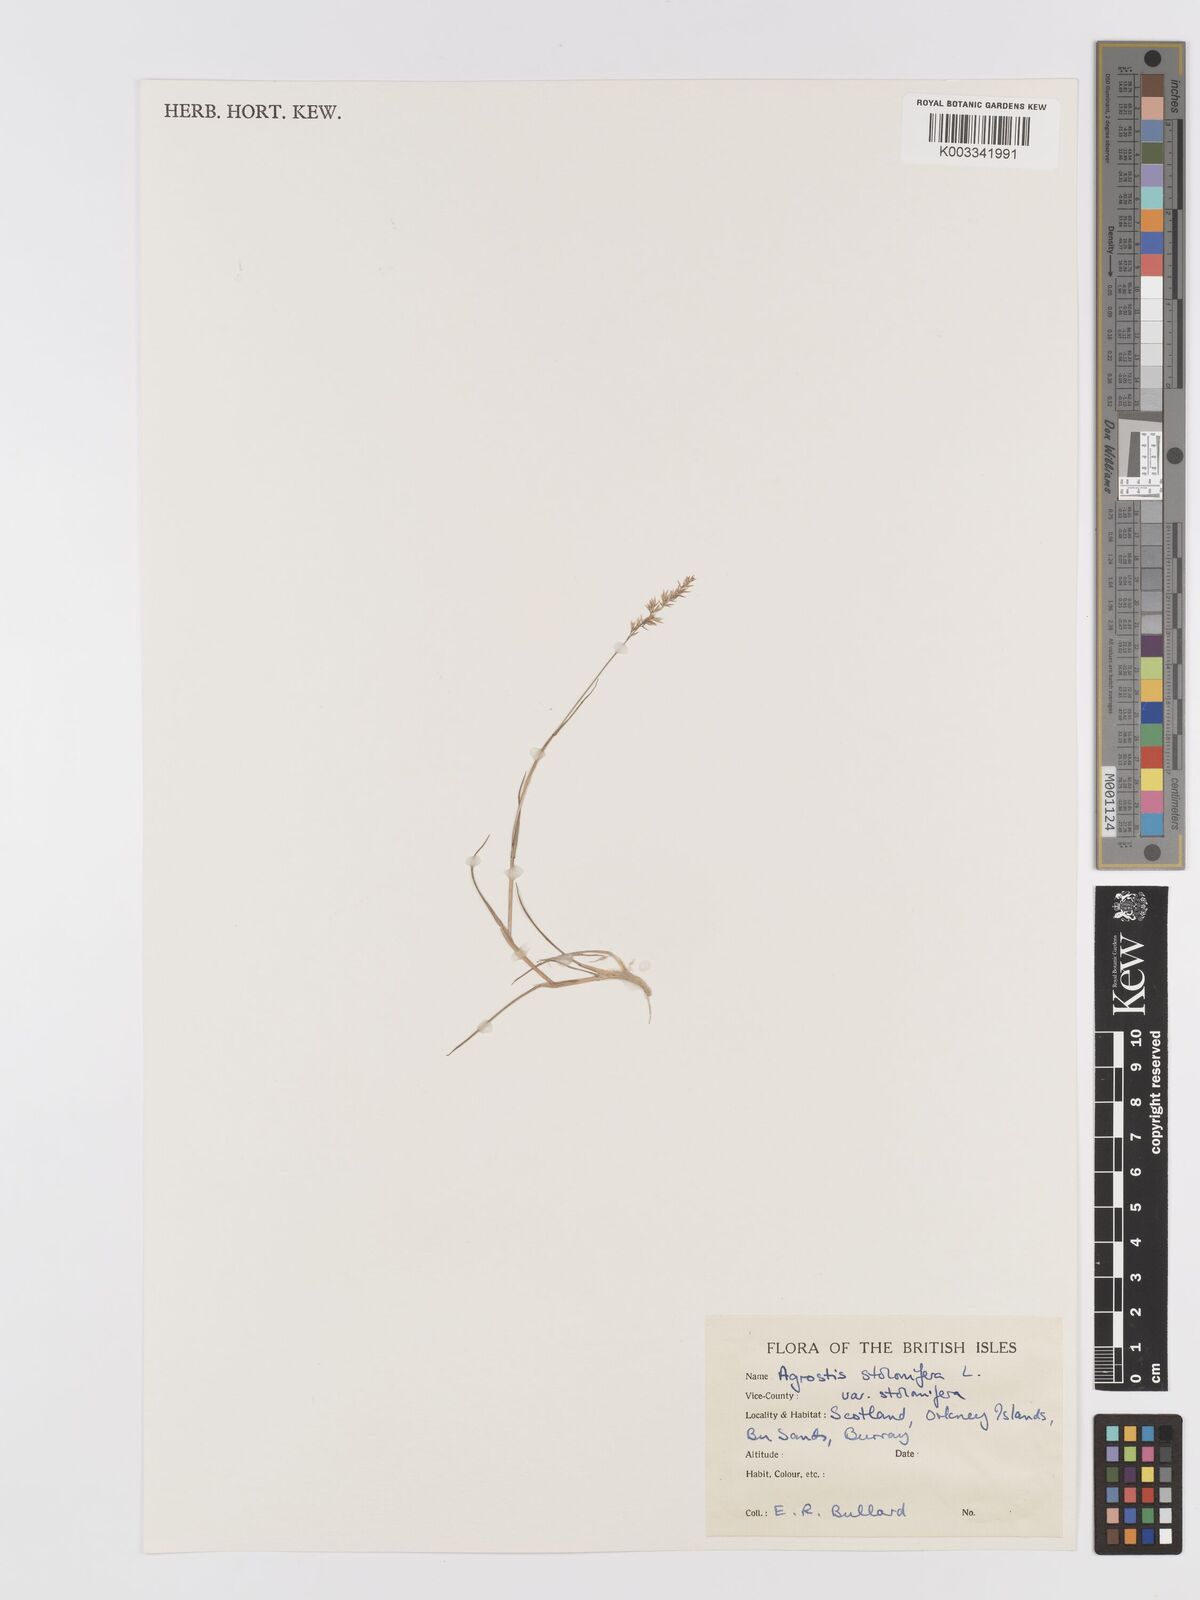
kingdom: Plantae
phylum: Tracheophyta
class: Liliopsida
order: Poales
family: Poaceae
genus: Agrostis
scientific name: Agrostis stolonifera
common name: Creeping bentgrass
